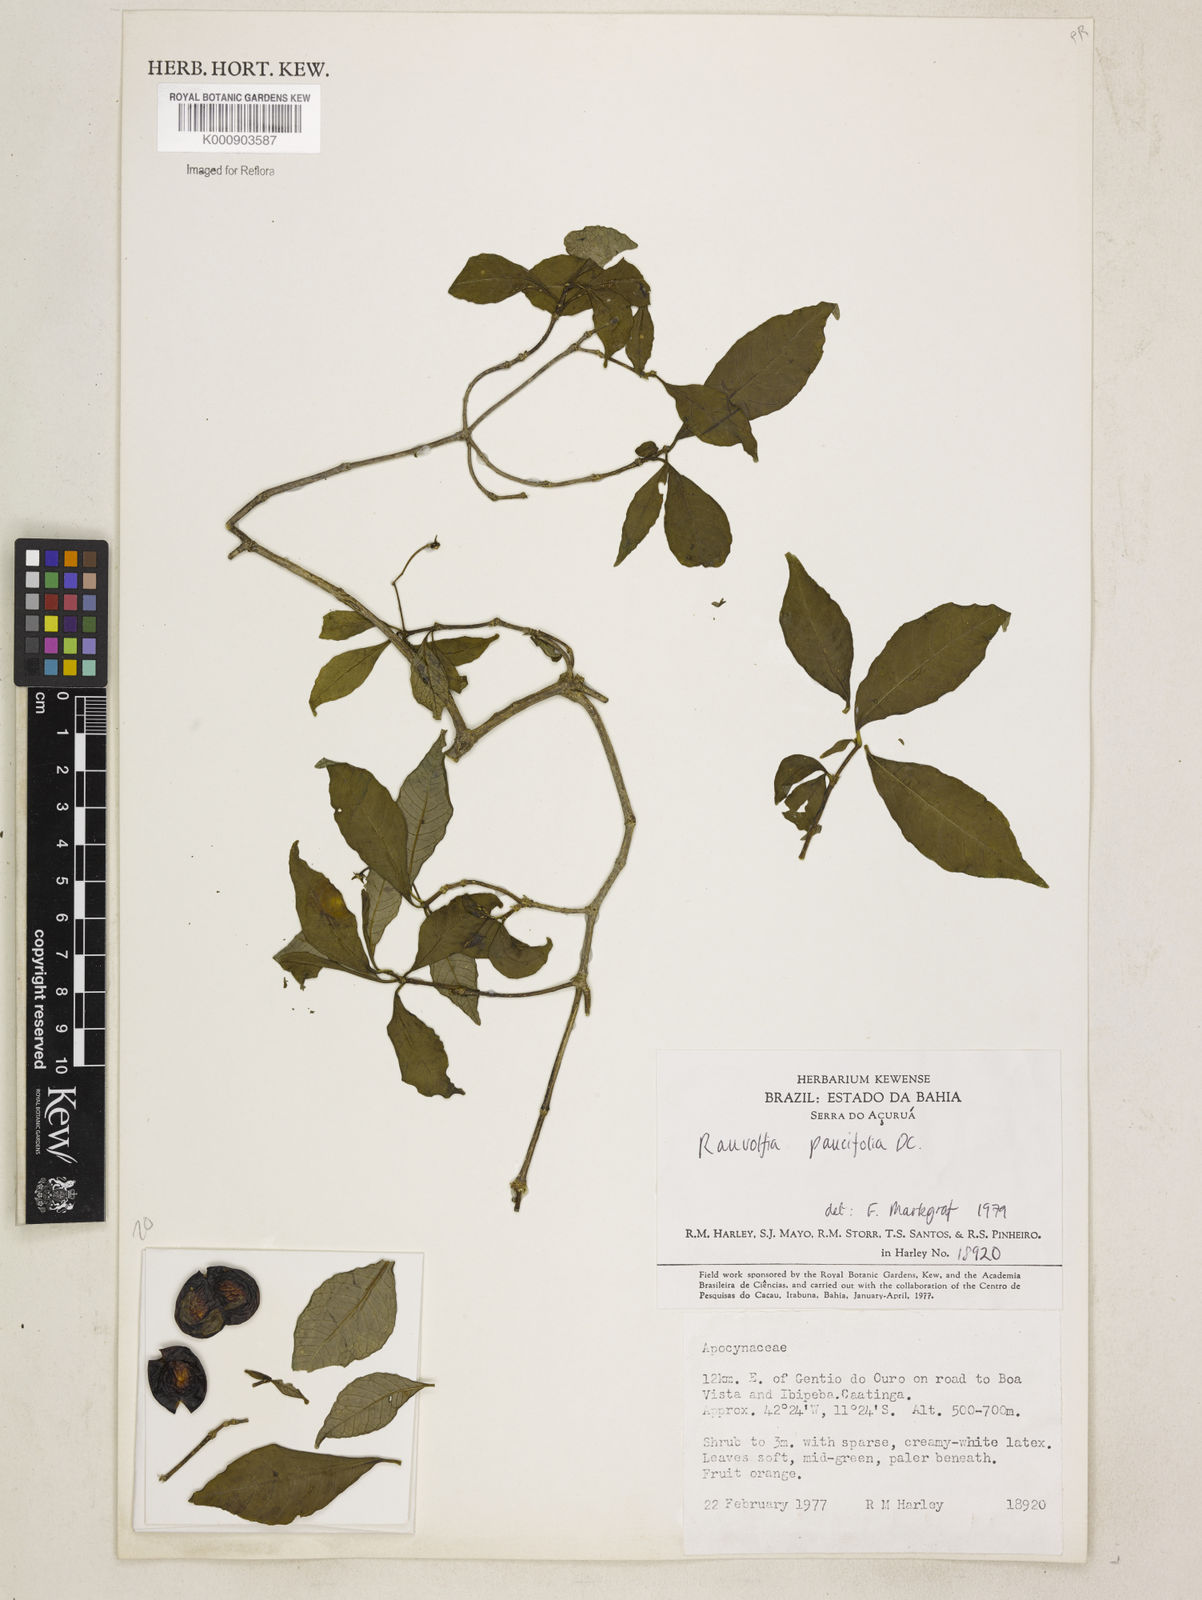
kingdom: Plantae
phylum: Tracheophyta
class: Magnoliopsida
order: Gentianales
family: Apocynaceae
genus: Rauvolfia
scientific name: Rauvolfia paucifolia
